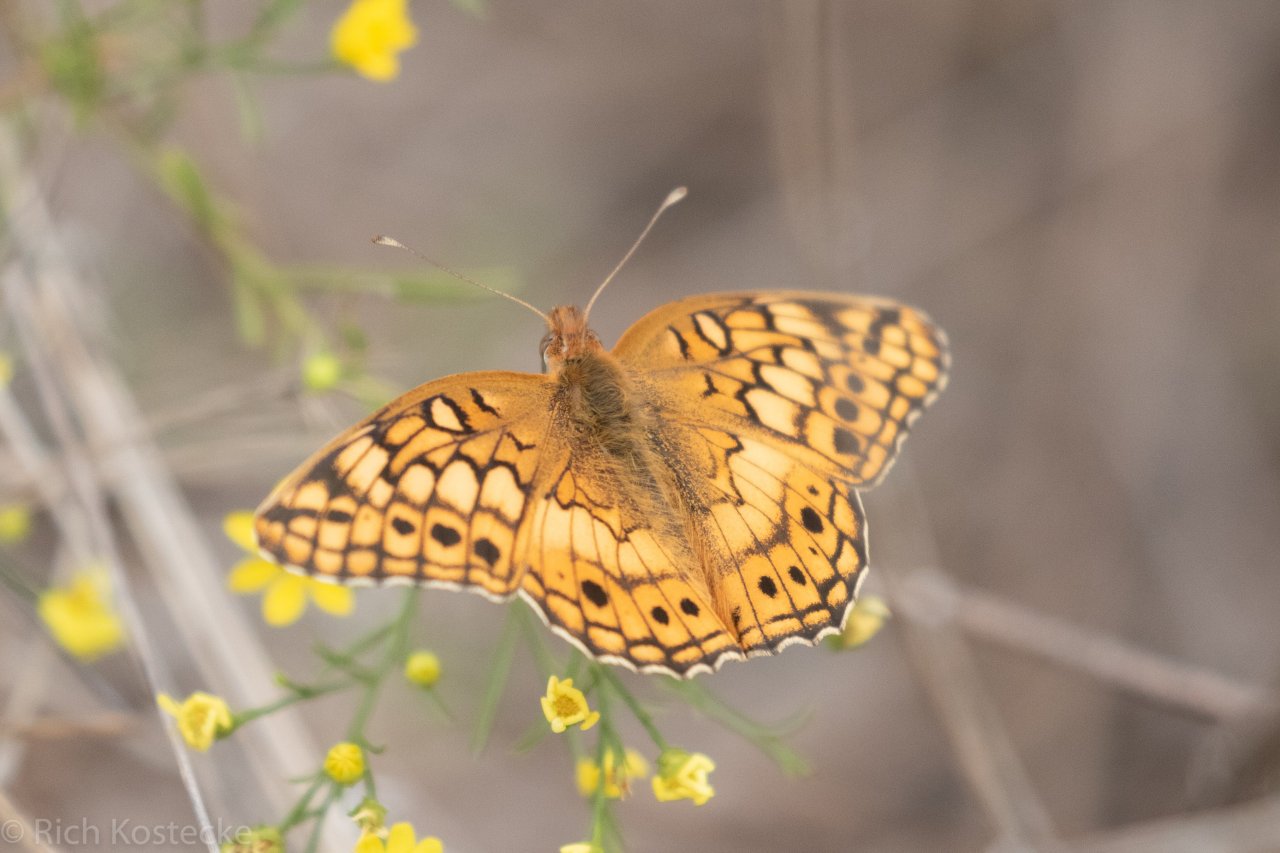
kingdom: Animalia
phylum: Arthropoda
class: Insecta
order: Lepidoptera
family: Nymphalidae
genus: Euptoieta
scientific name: Euptoieta claudia
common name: Variegated Fritillary
